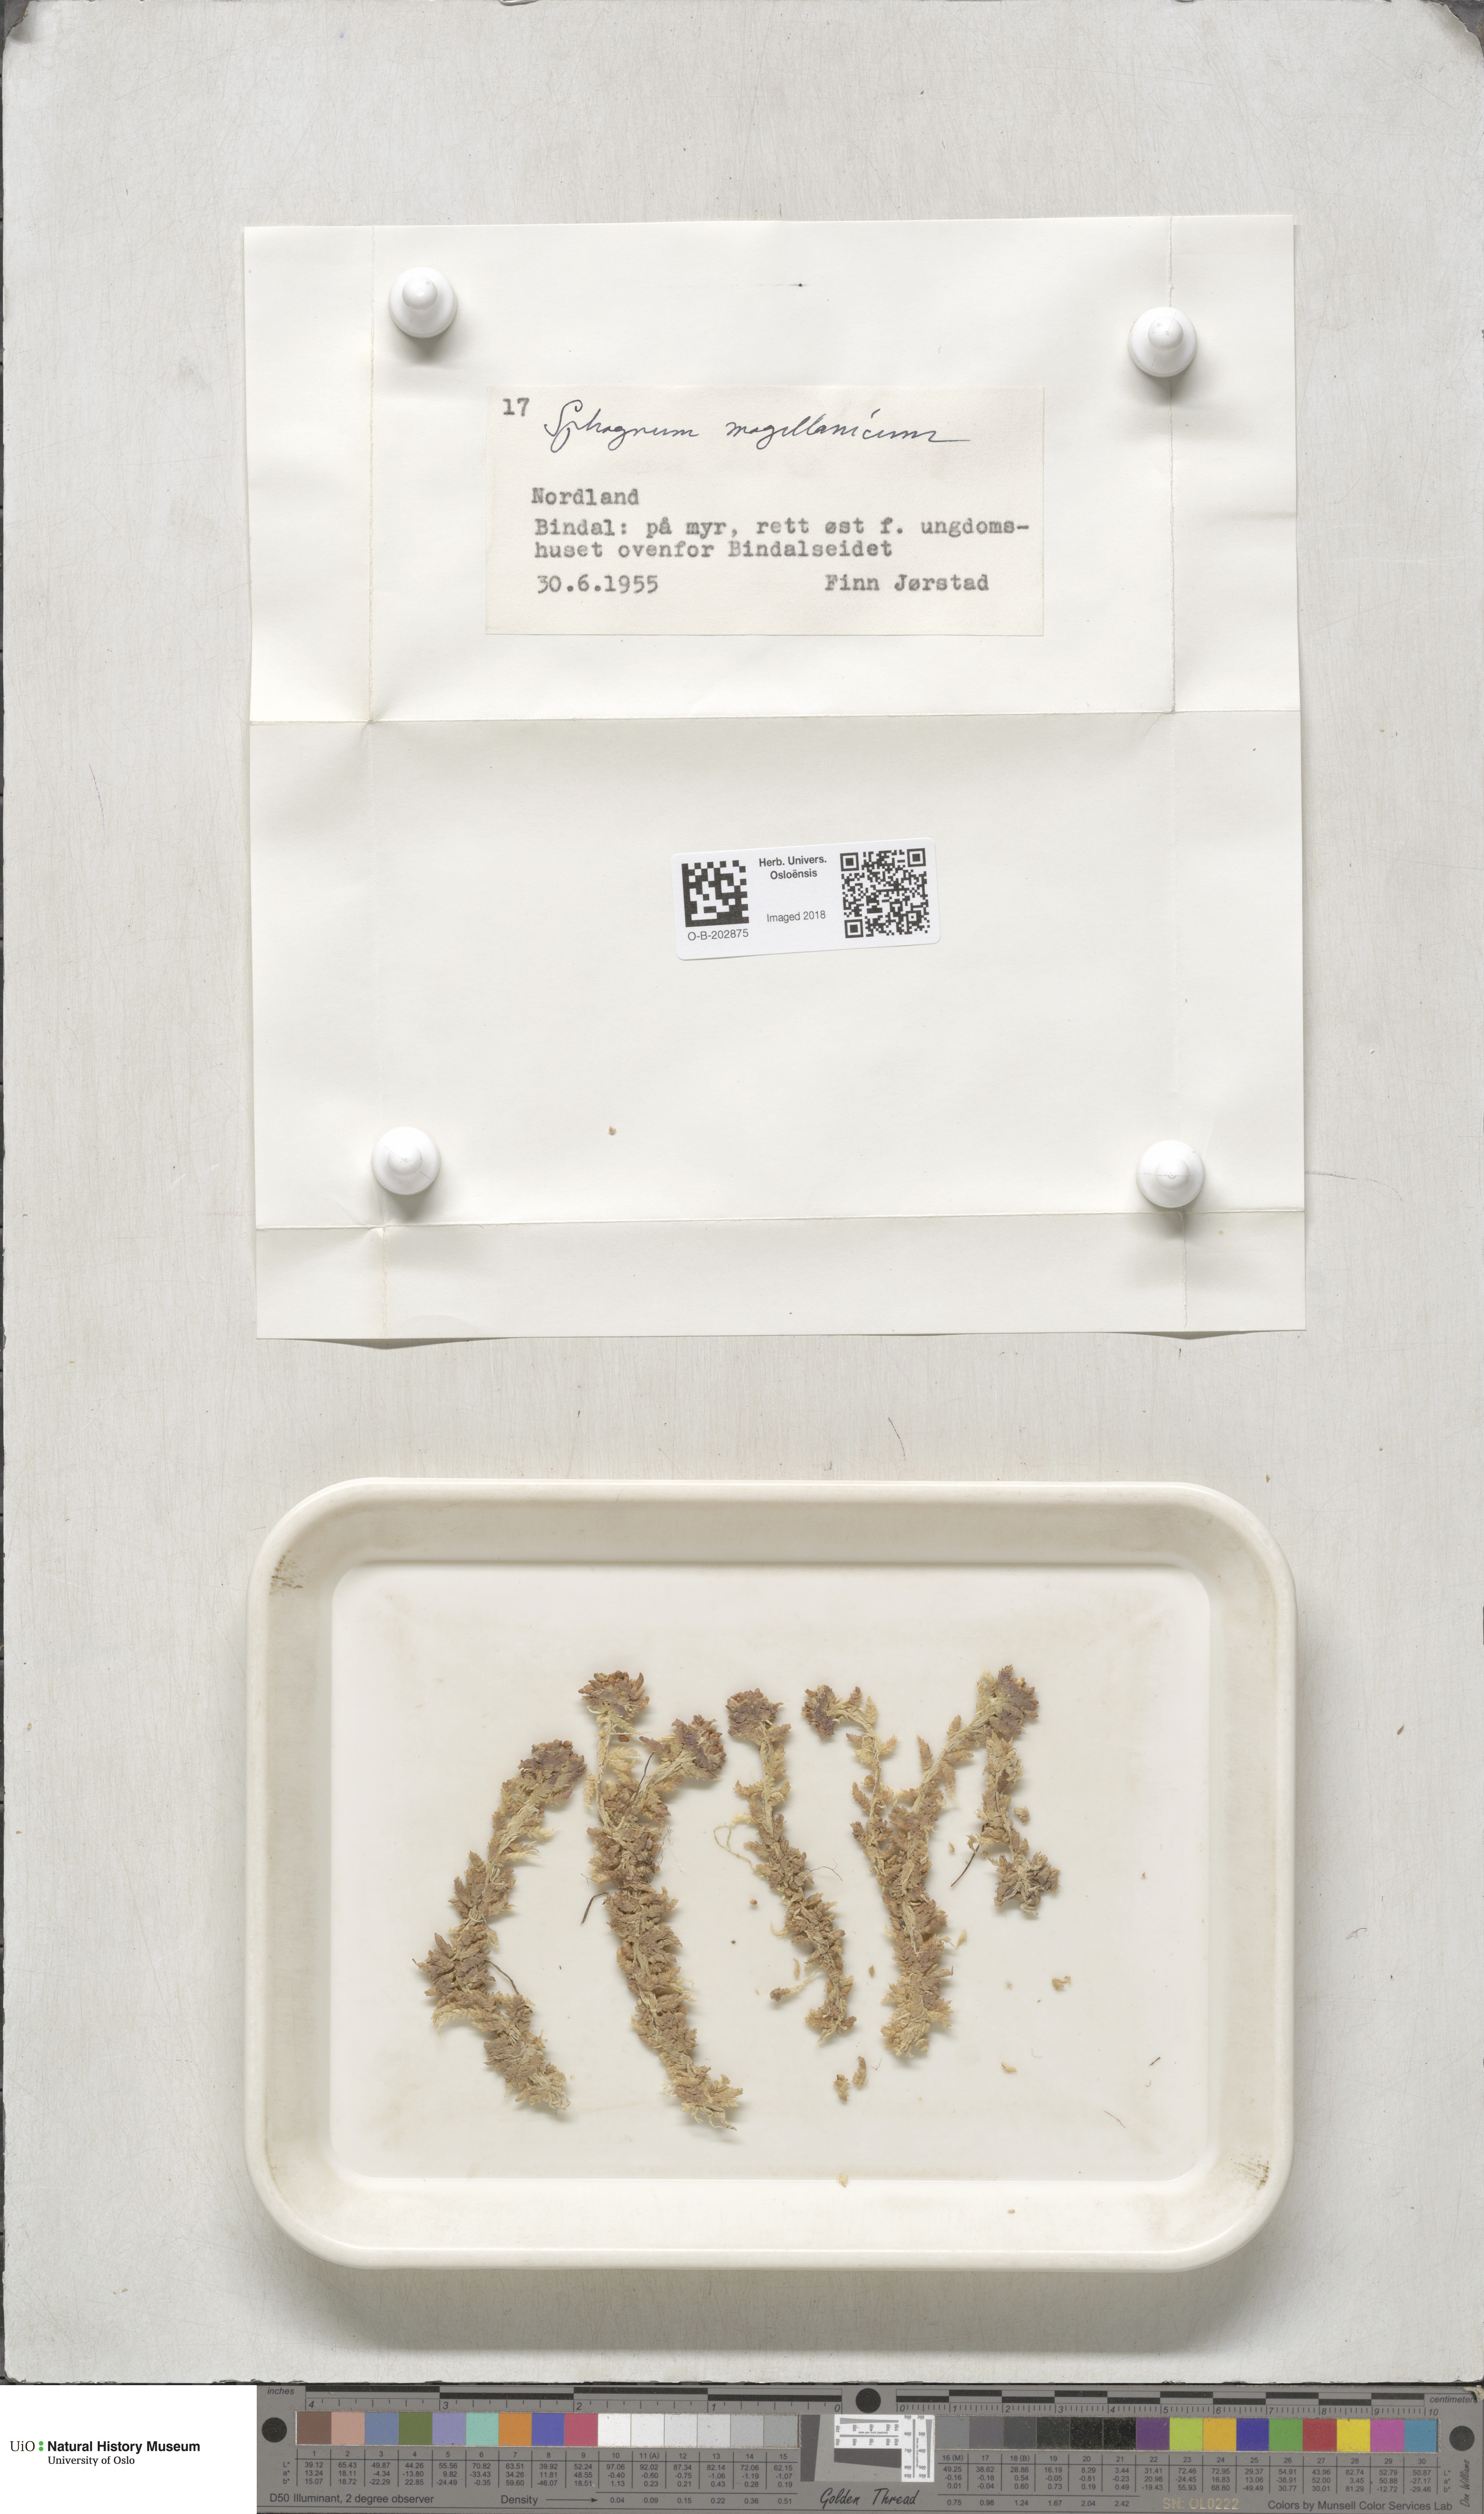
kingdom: Plantae
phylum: Bryophyta
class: Sphagnopsida
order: Sphagnales
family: Sphagnaceae
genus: Sphagnum
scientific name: Sphagnum magellanicum
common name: Magellan's peat moss
